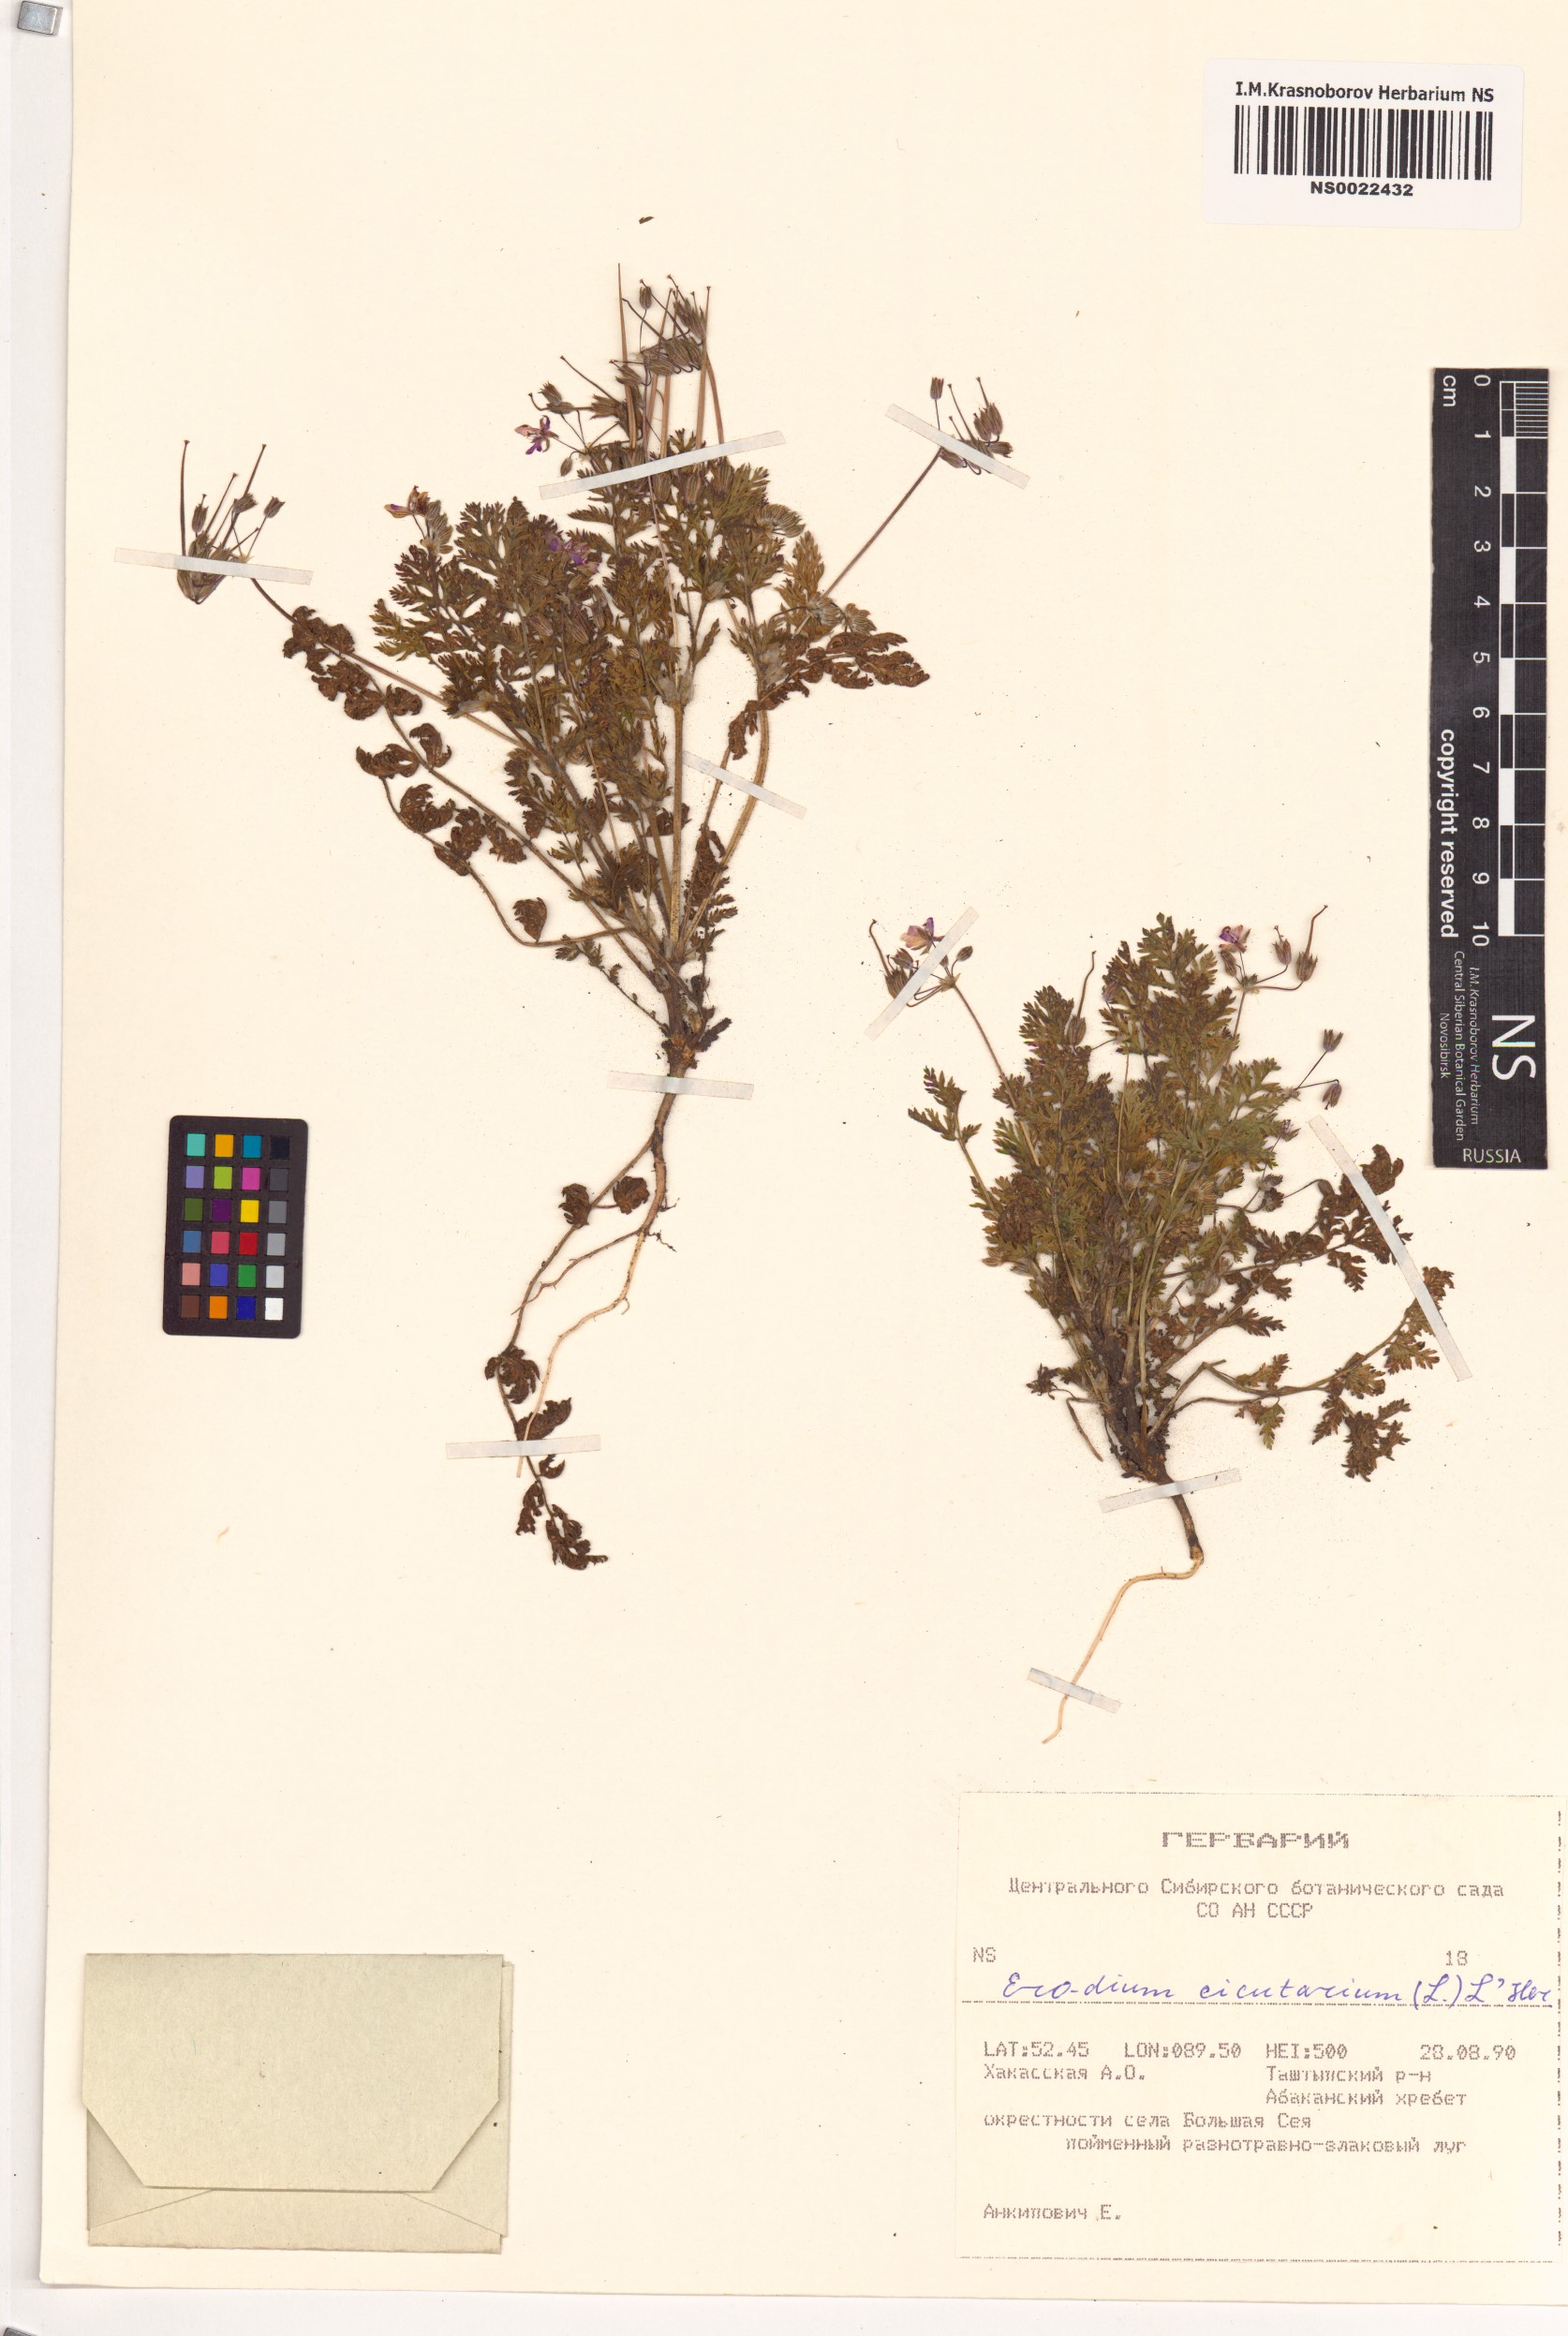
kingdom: Plantae
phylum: Tracheophyta
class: Magnoliopsida
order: Geraniales
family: Geraniaceae
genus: Erodium
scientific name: Erodium cicutarium
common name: Common stork's-bill
